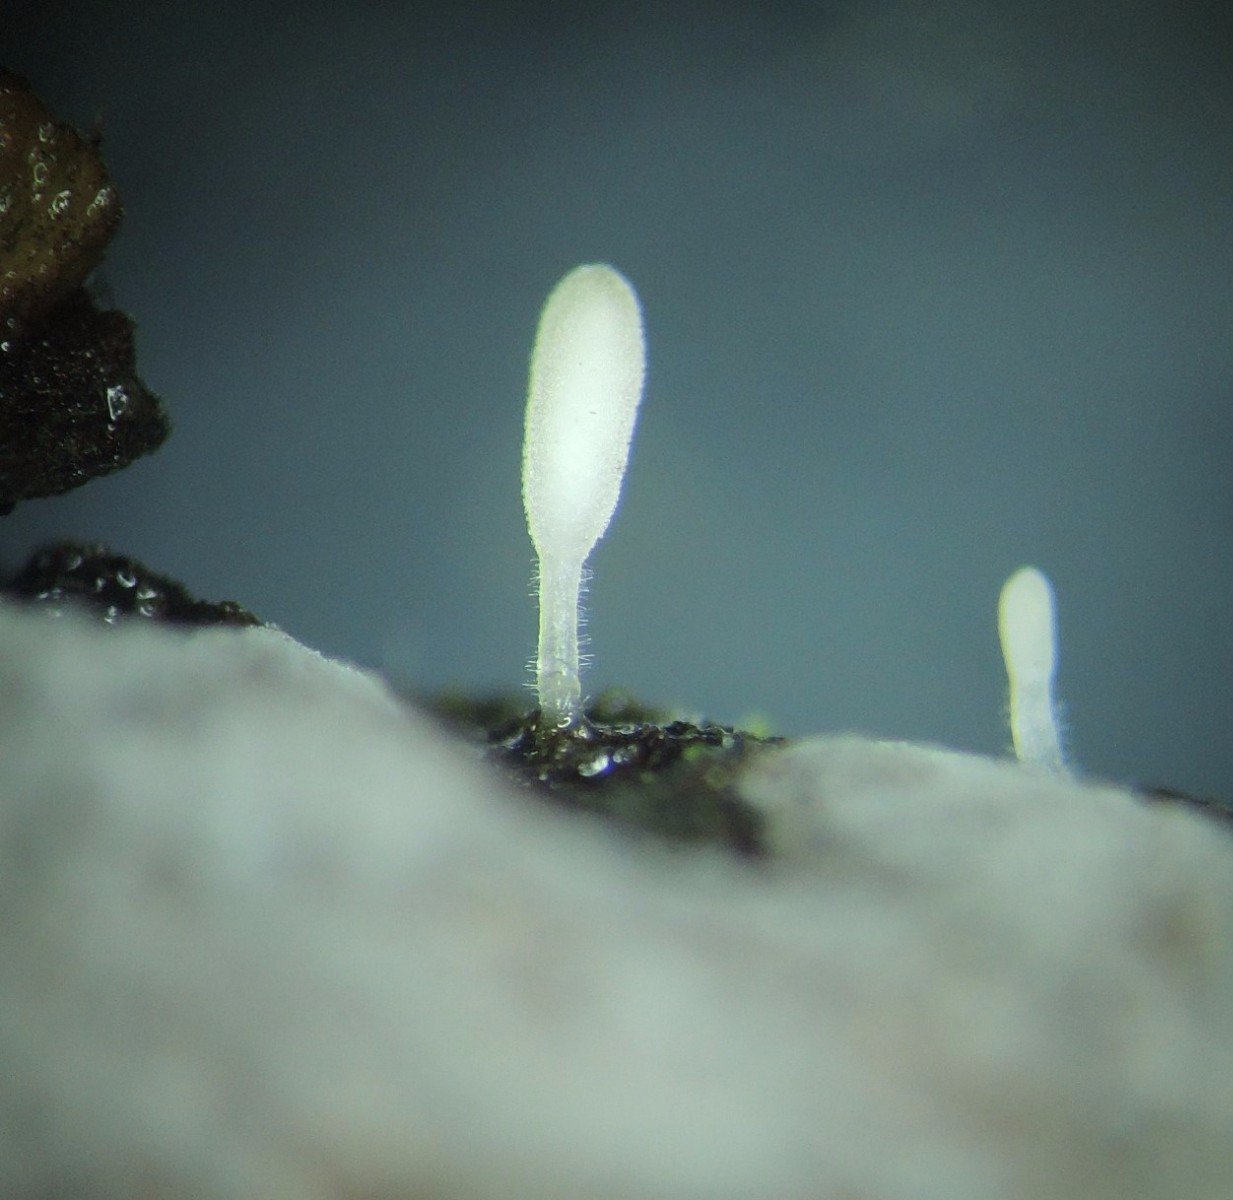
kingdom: Fungi
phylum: Basidiomycota
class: Agaricomycetes
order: Agaricales
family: Typhulaceae
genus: Typhula
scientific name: Typhula spathulata
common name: aske-trådkølle
